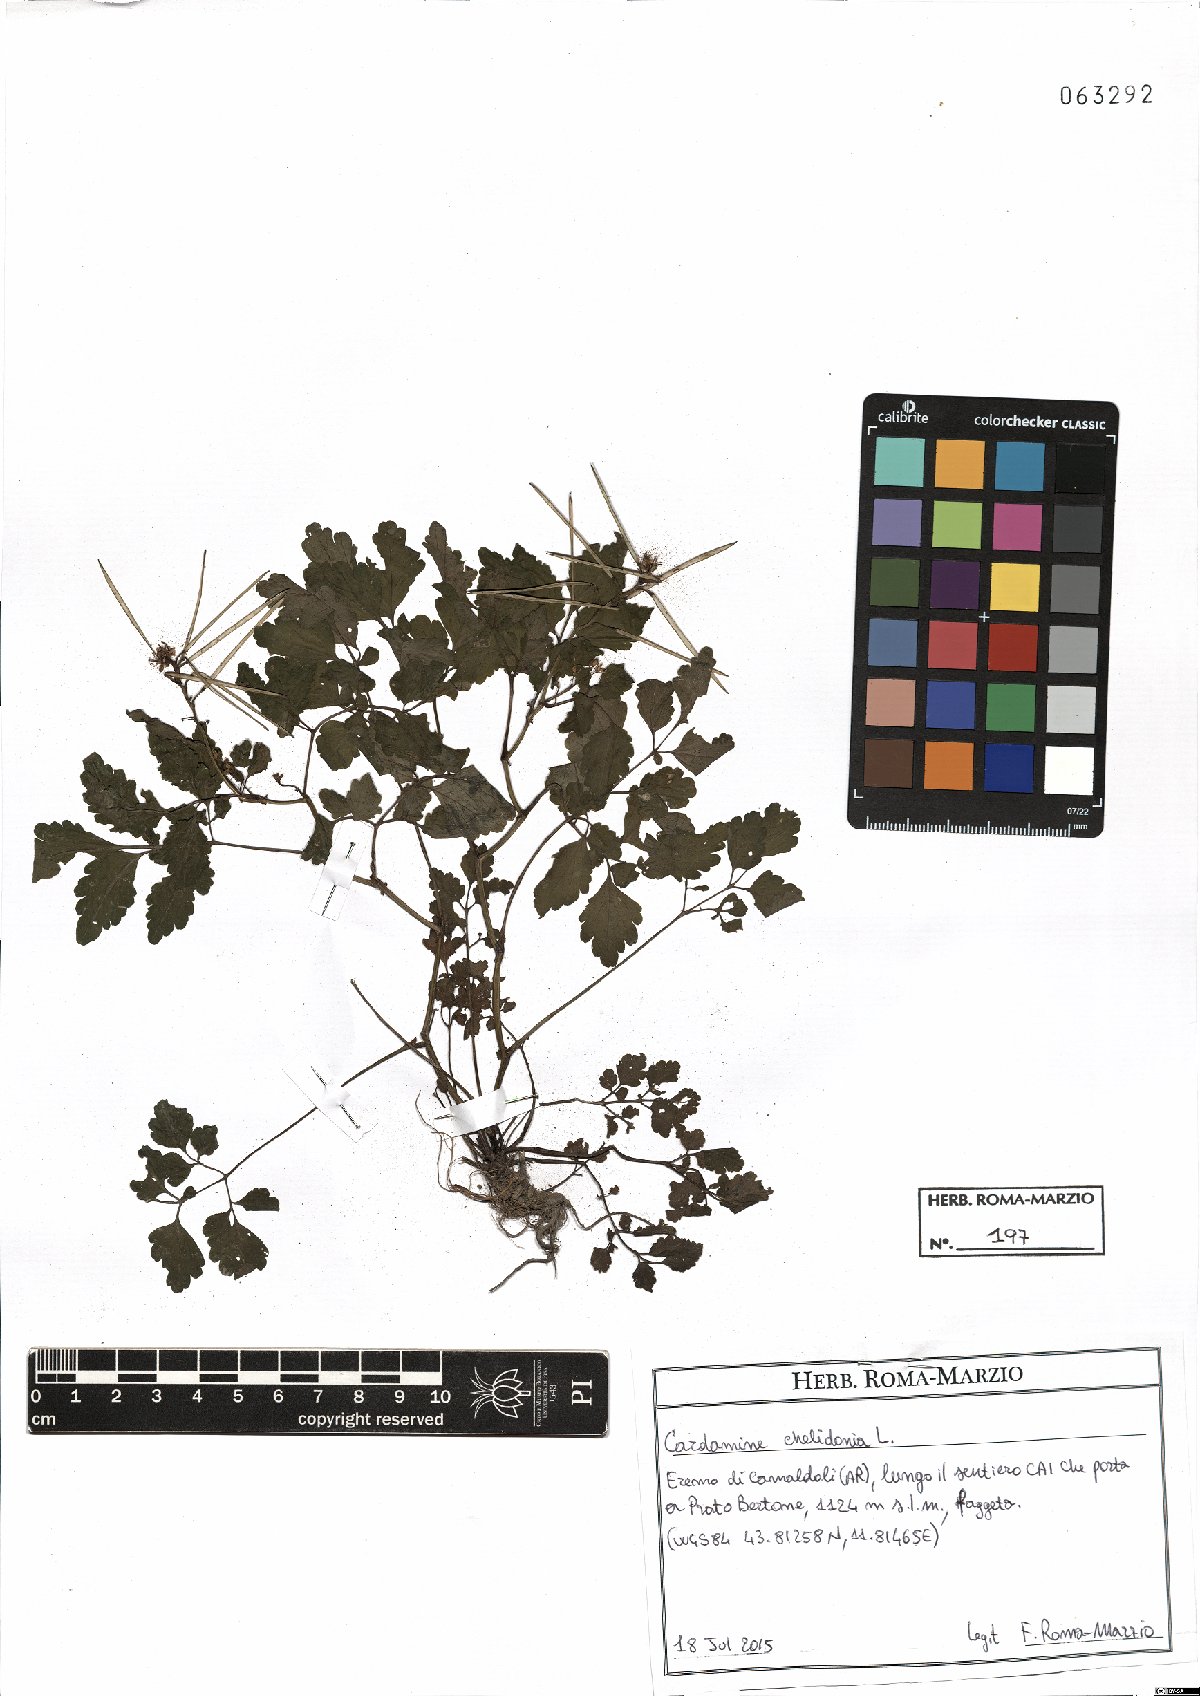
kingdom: Plantae
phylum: Tracheophyta
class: Magnoliopsida
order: Brassicales
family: Brassicaceae
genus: Cardamine
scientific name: Cardamine chelidonia
